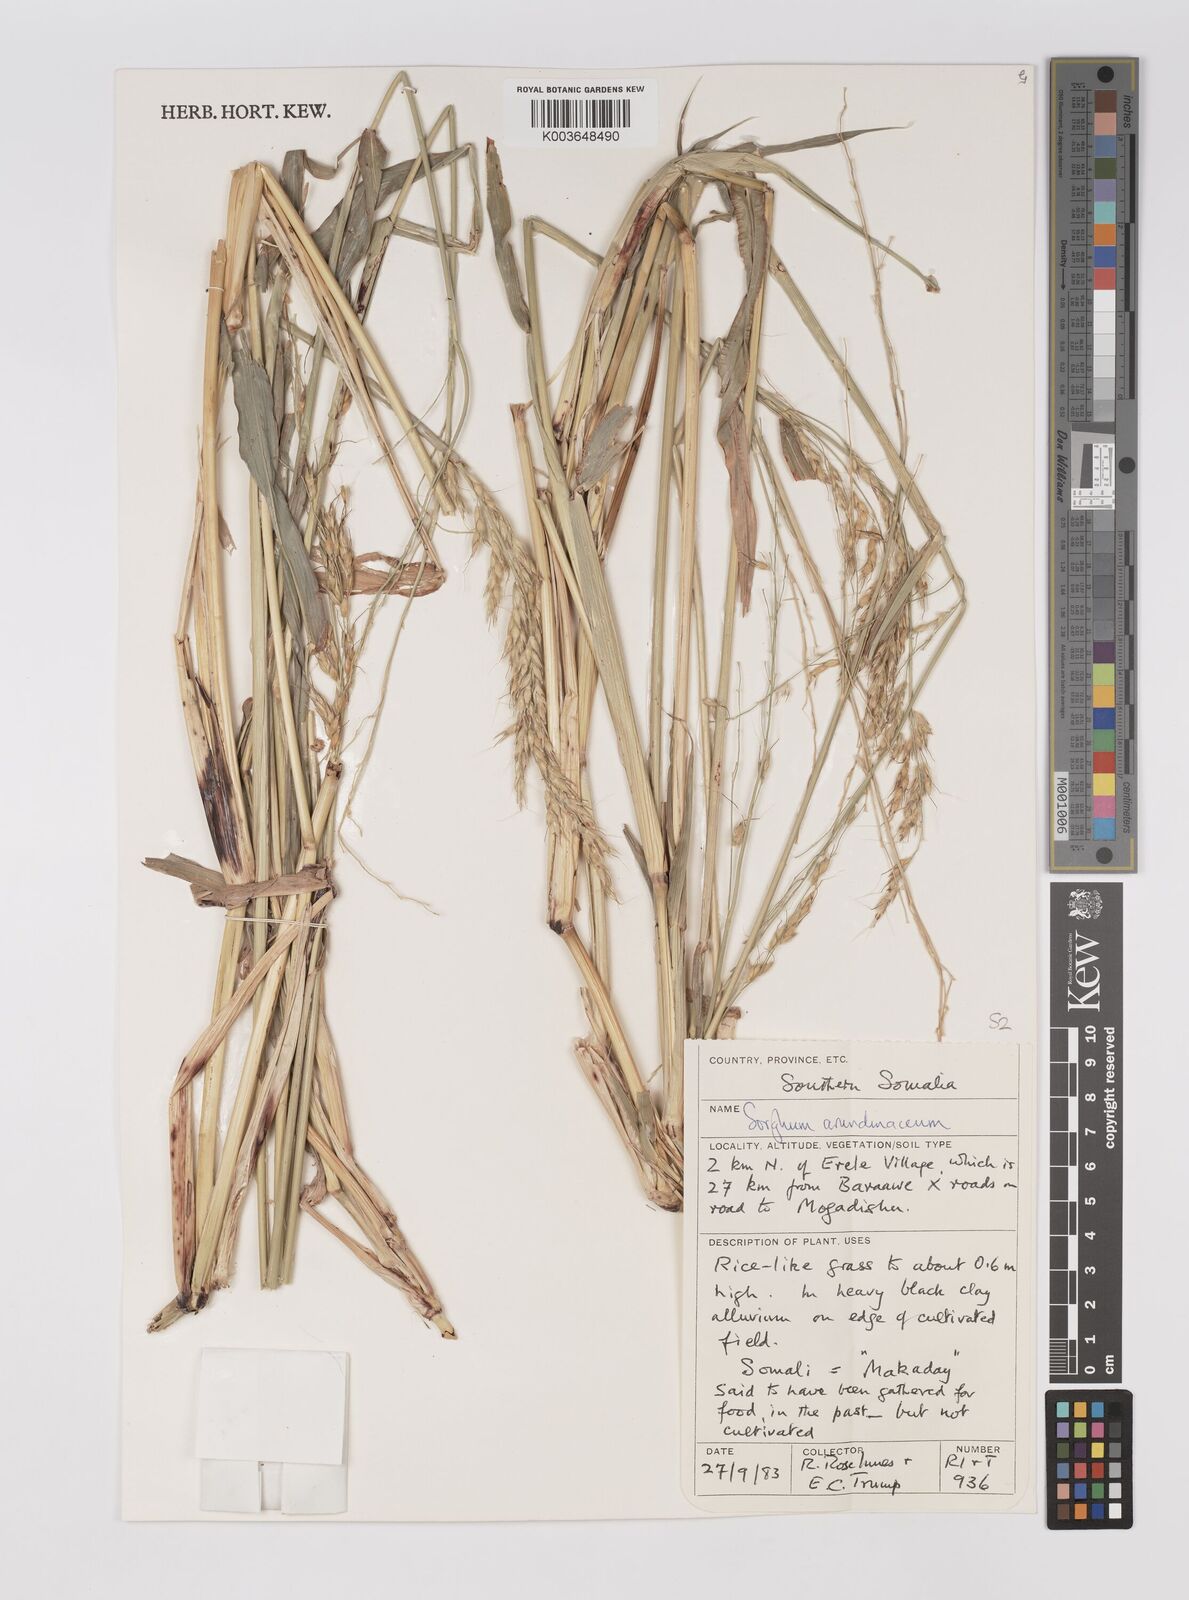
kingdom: Plantae
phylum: Tracheophyta
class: Liliopsida
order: Poales
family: Poaceae
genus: Sorghum
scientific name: Sorghum arundinaceum
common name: Sorghum
